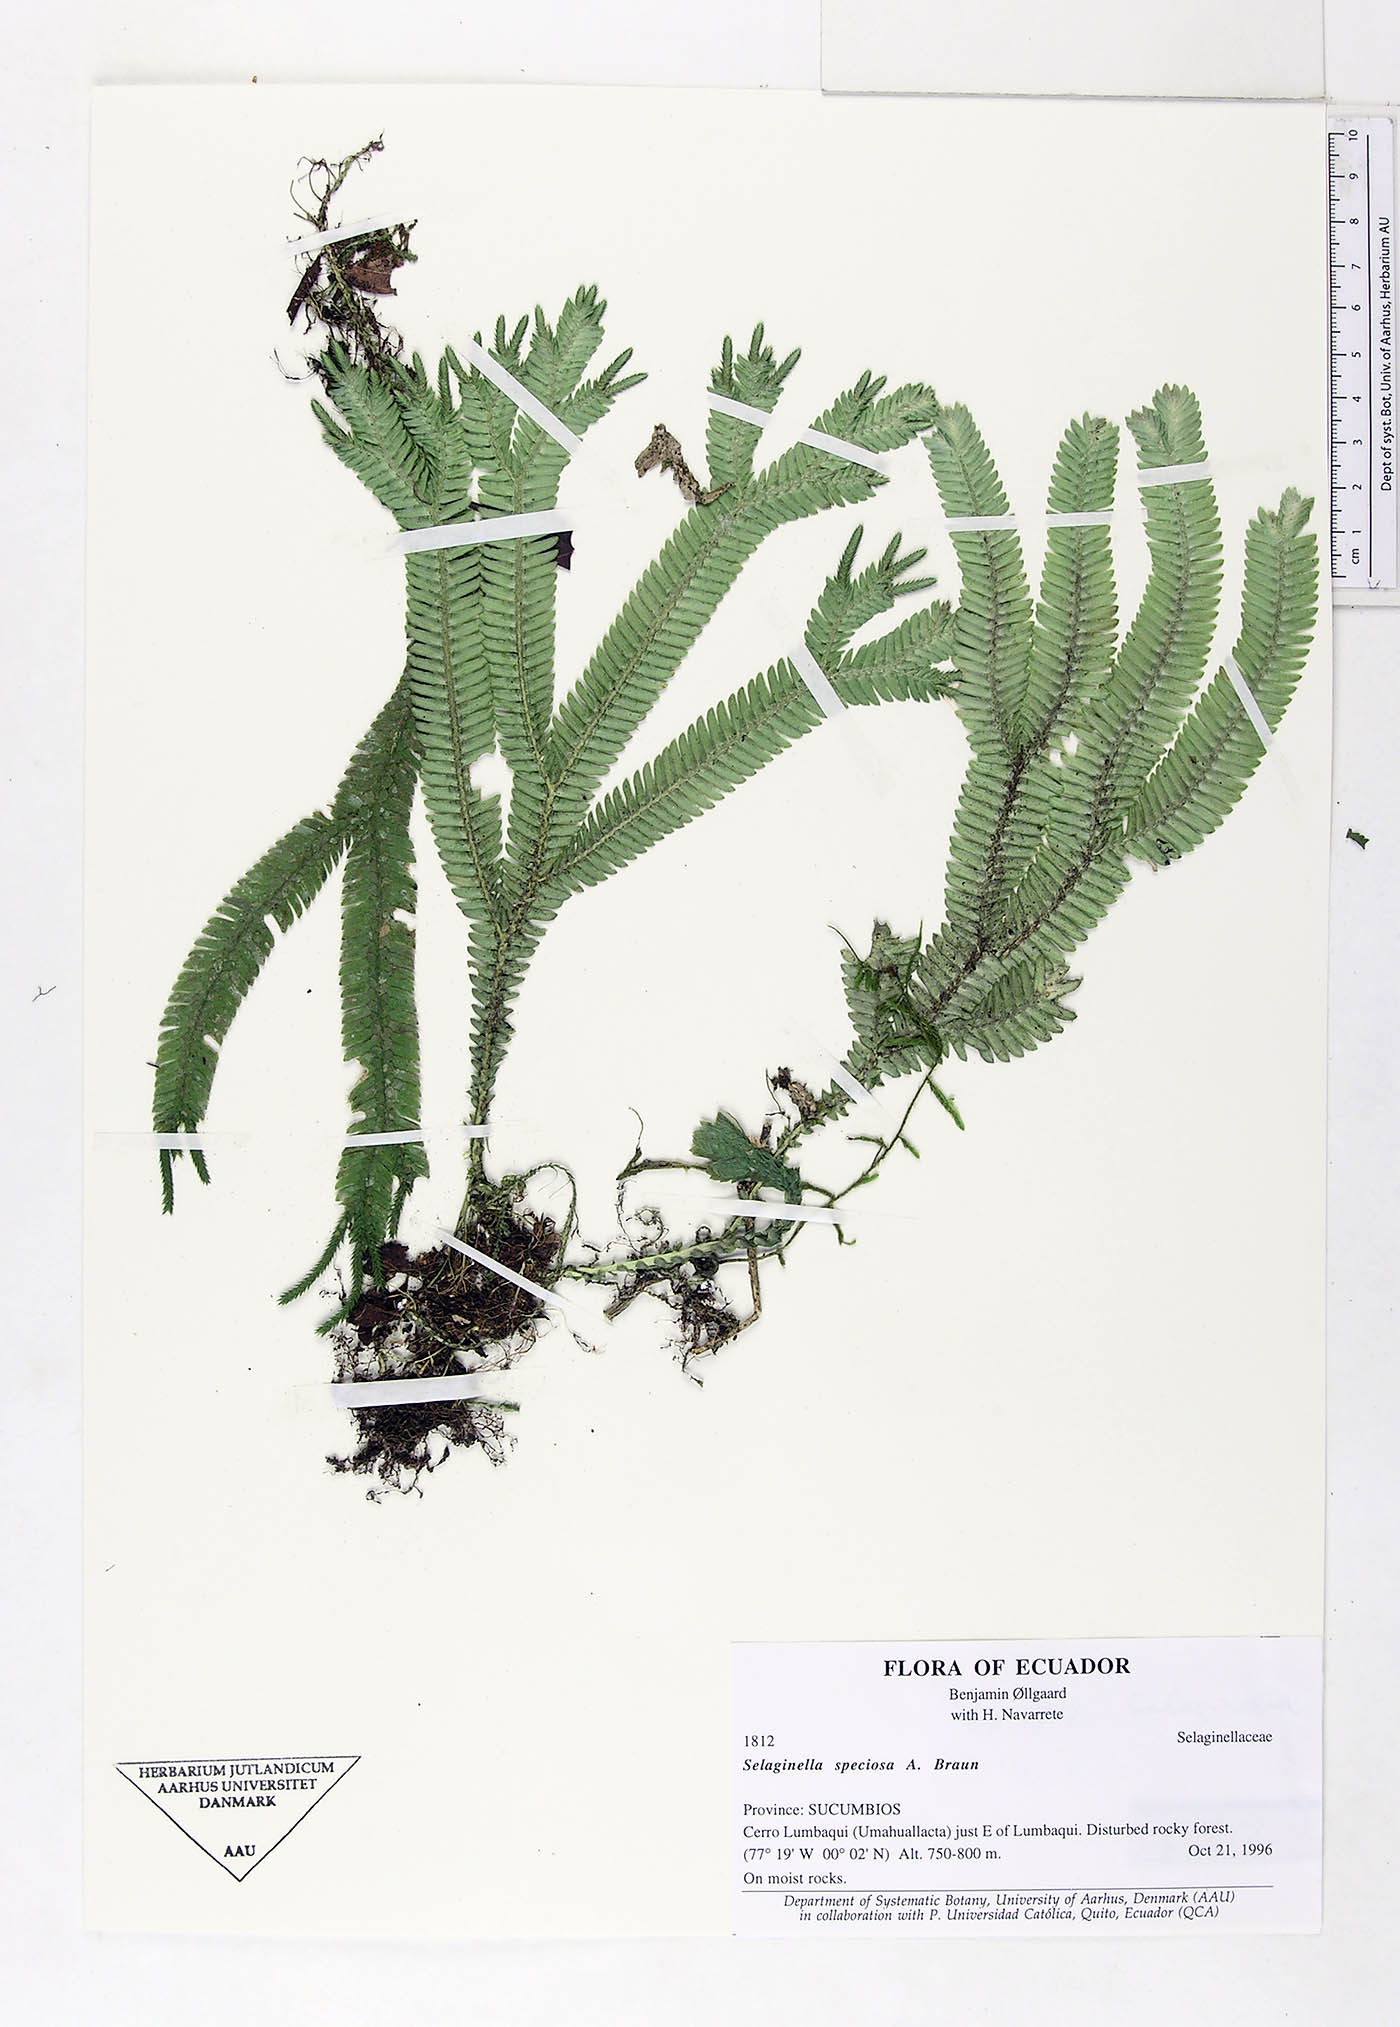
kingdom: Plantae
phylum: Tracheophyta
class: Lycopodiopsida
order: Selaginellales
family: Selaginellaceae
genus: Selaginella
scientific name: Selaginella speciosa
